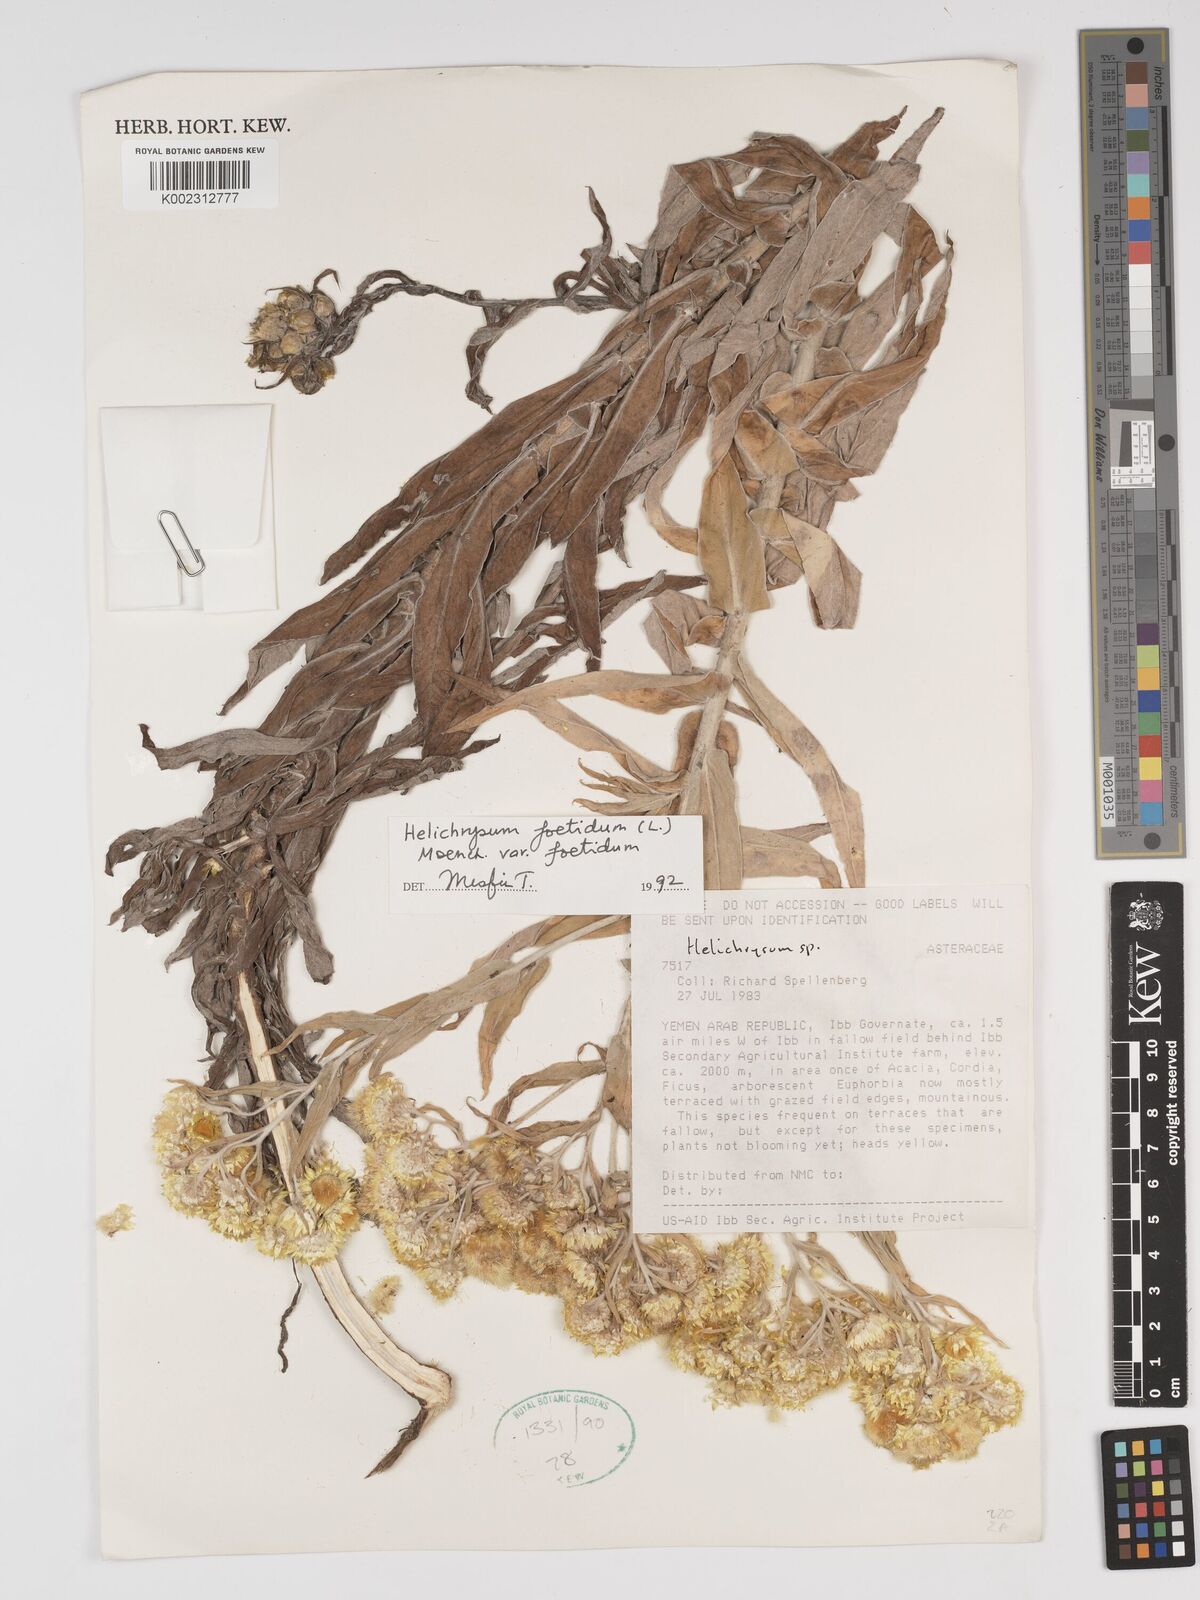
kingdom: Plantae
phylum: Tracheophyta
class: Magnoliopsida
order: Asterales
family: Asteraceae
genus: Helichrysum
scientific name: Helichrysum foetidum
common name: Stinking everlasting
